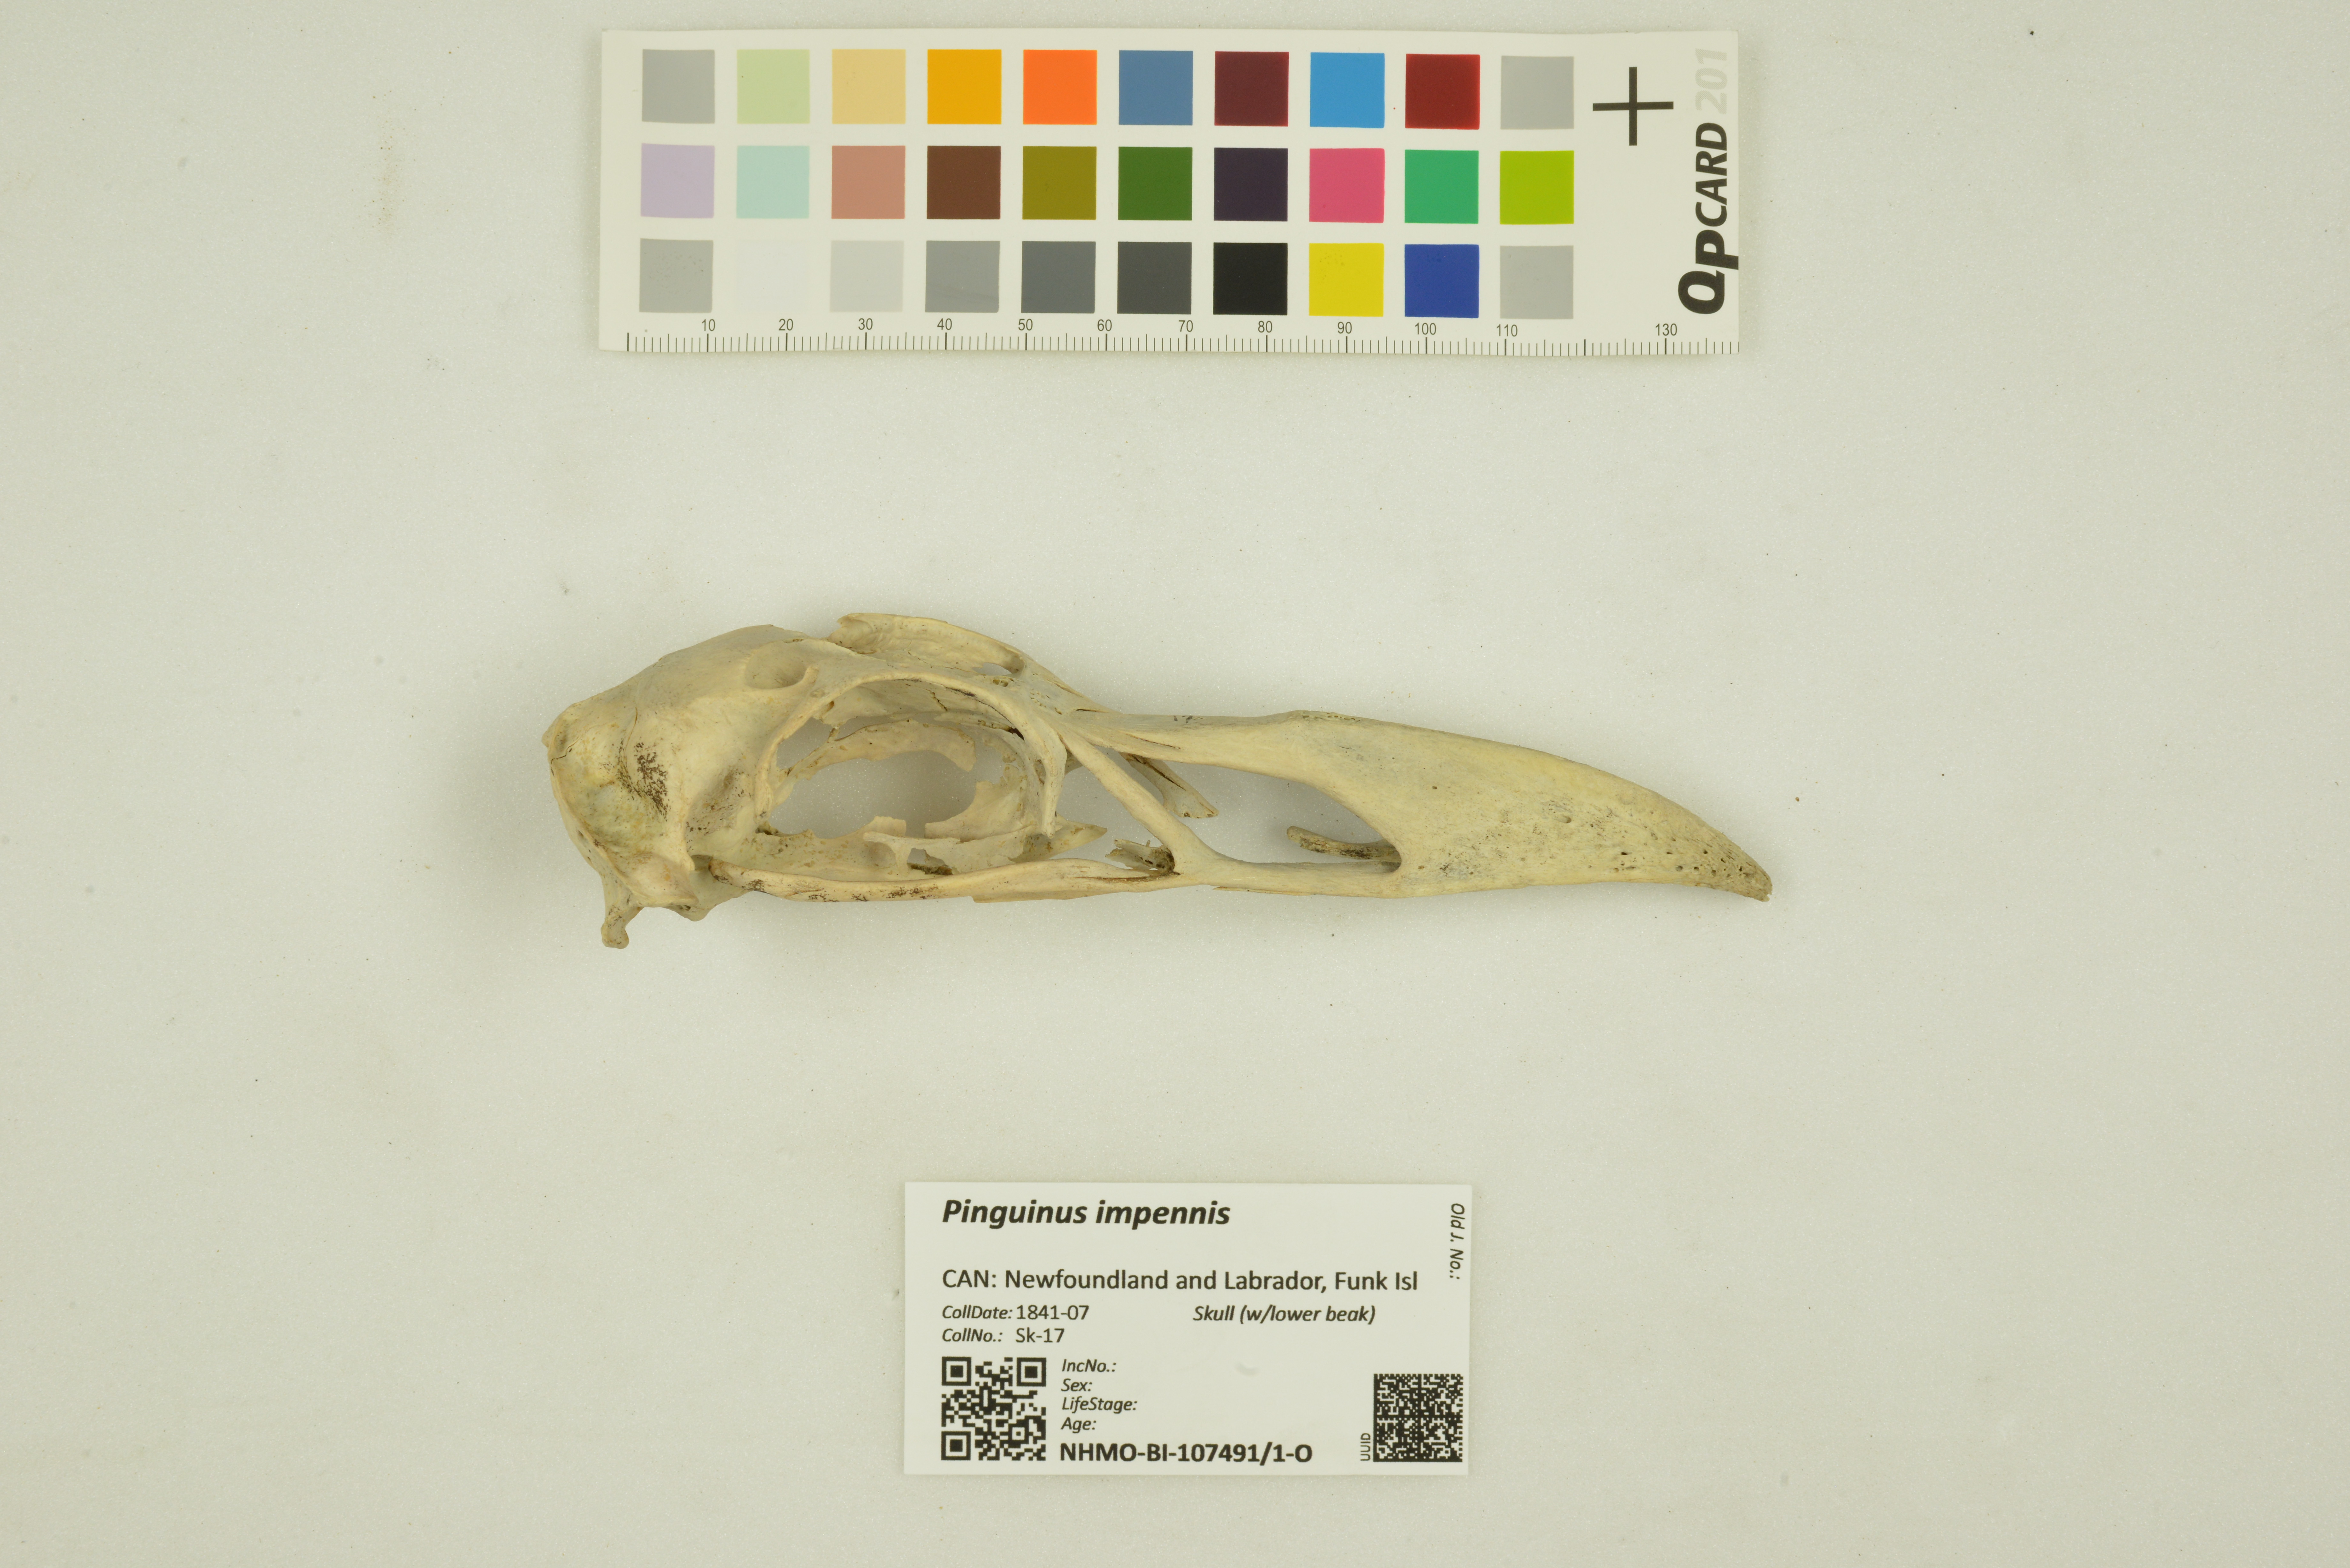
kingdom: Animalia
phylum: Chordata
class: Aves
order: Charadriiformes
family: Alcidae
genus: Pinguinus
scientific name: Pinguinus impennis
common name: Great auk
